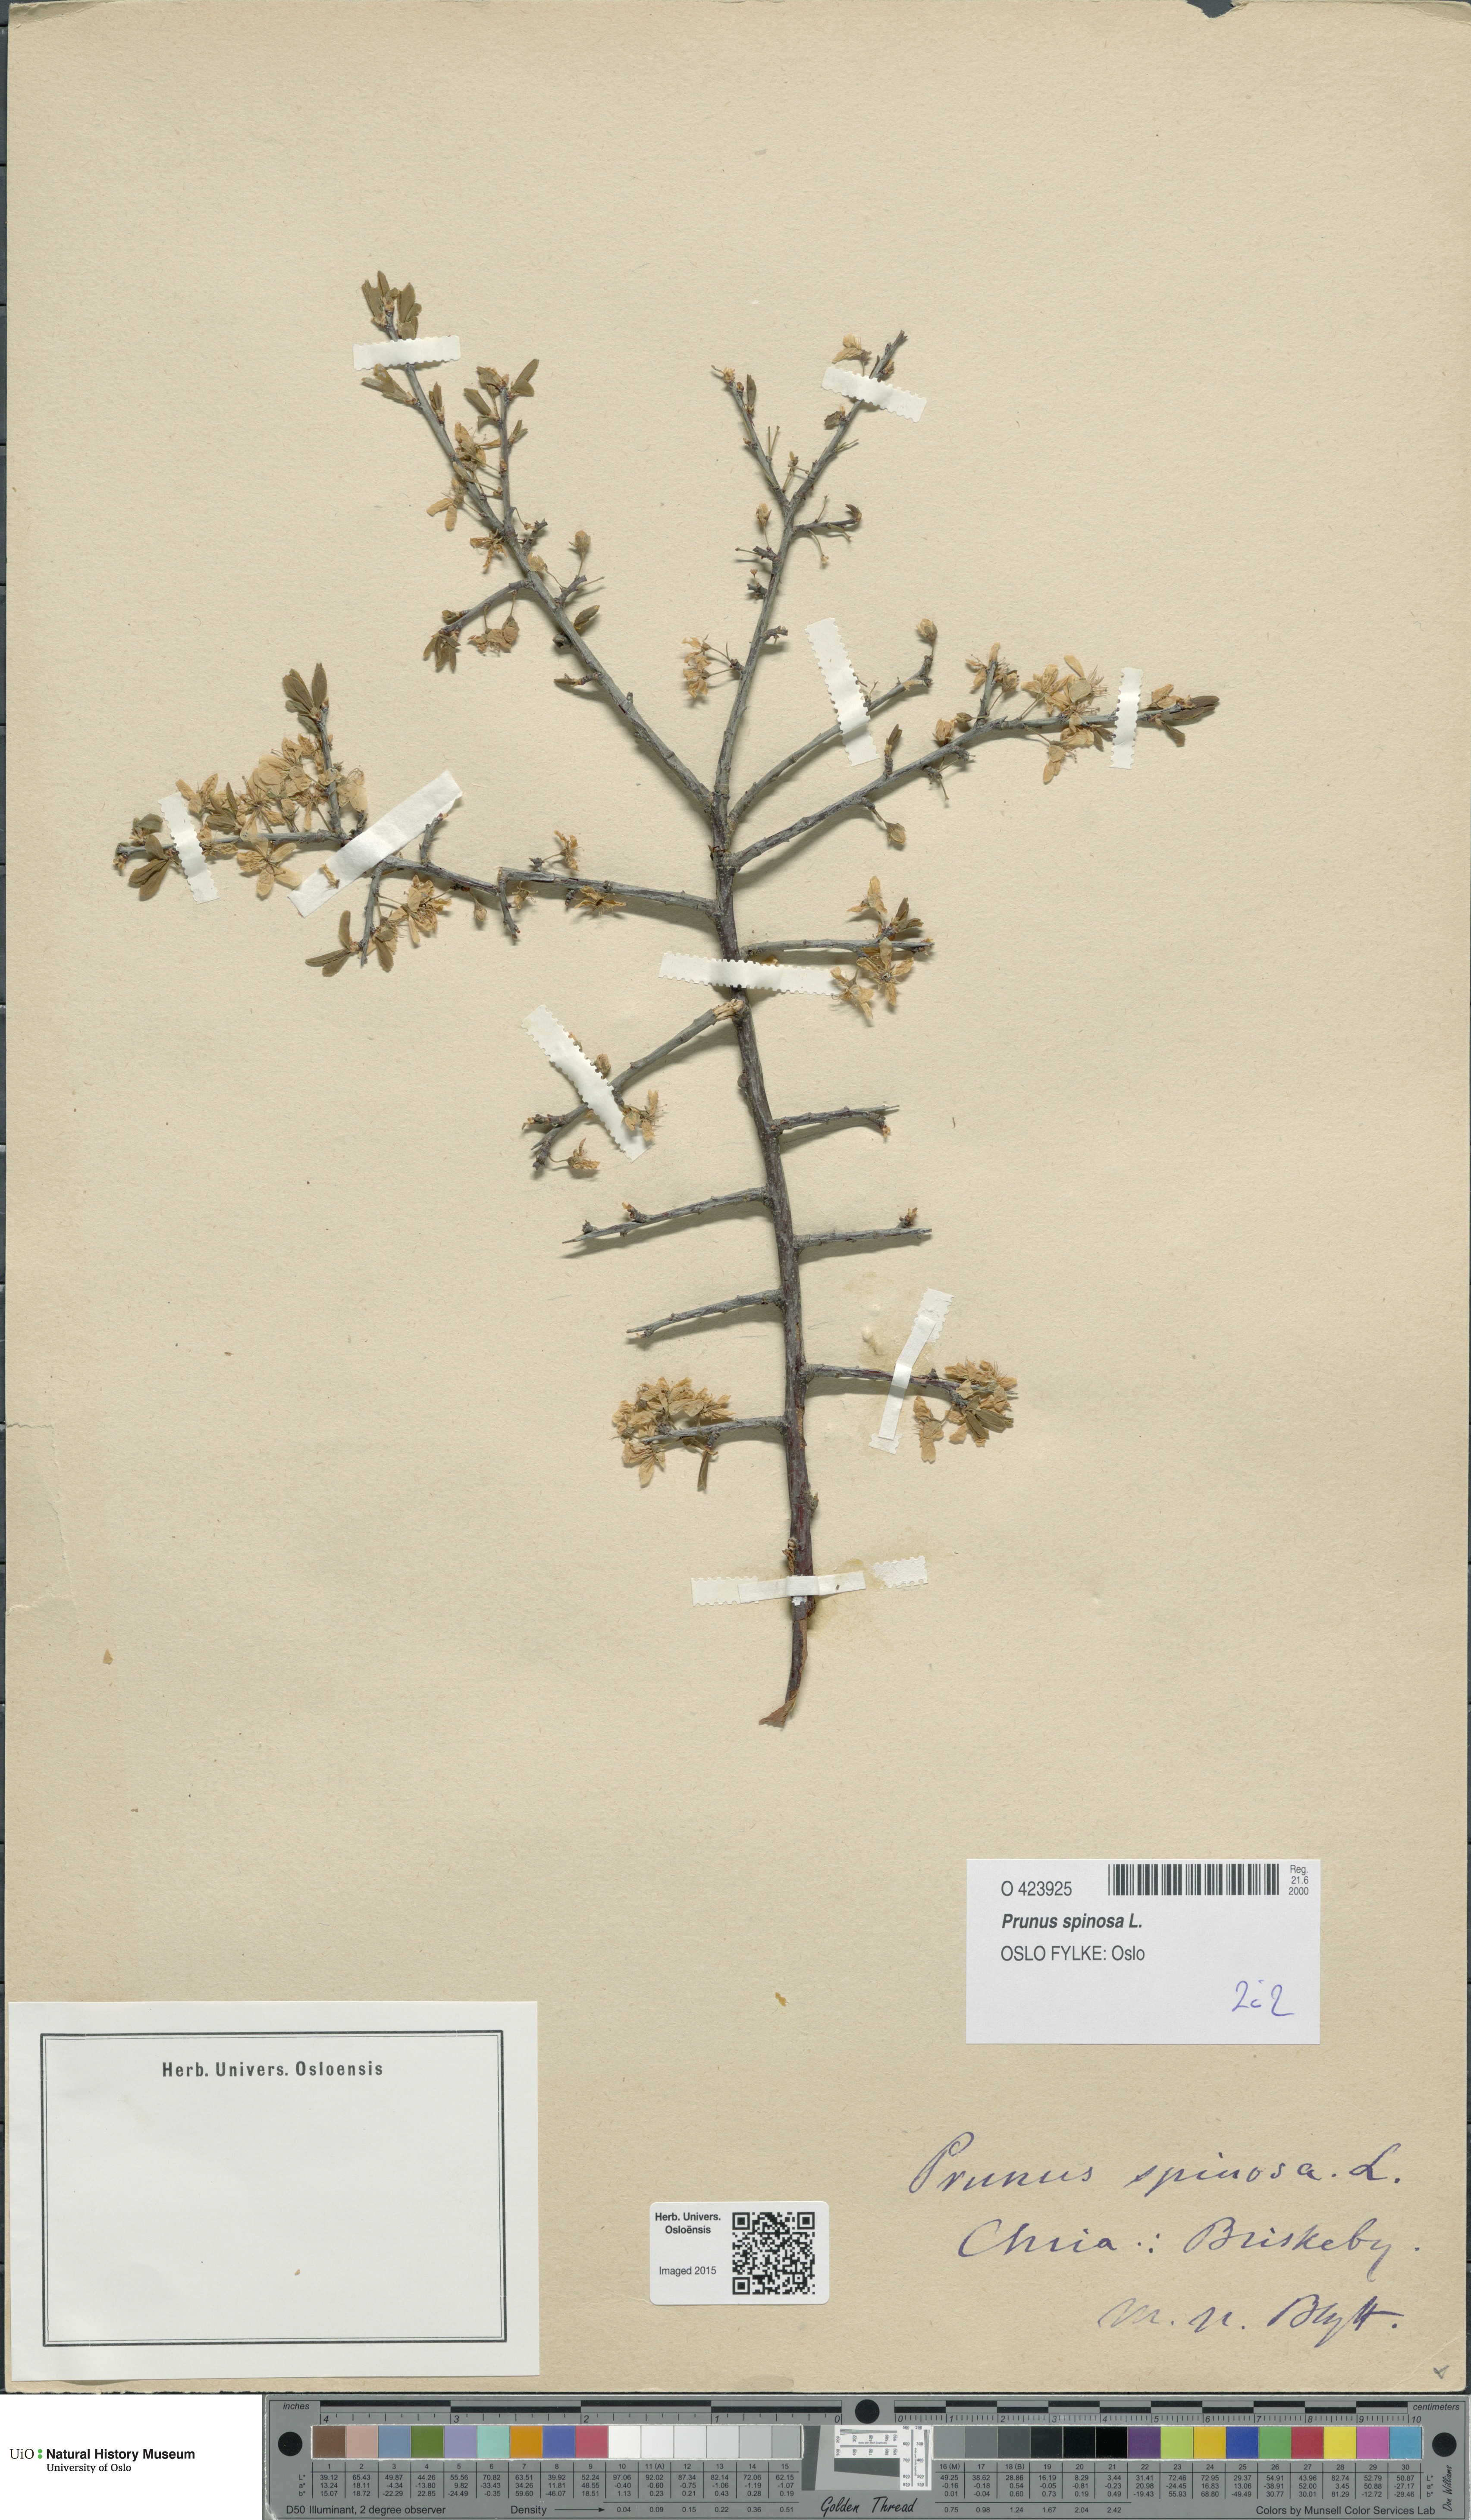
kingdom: Plantae
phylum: Tracheophyta
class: Magnoliopsida
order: Rosales
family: Rosaceae
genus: Prunus
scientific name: Prunus spinosa
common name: Blackthorn
